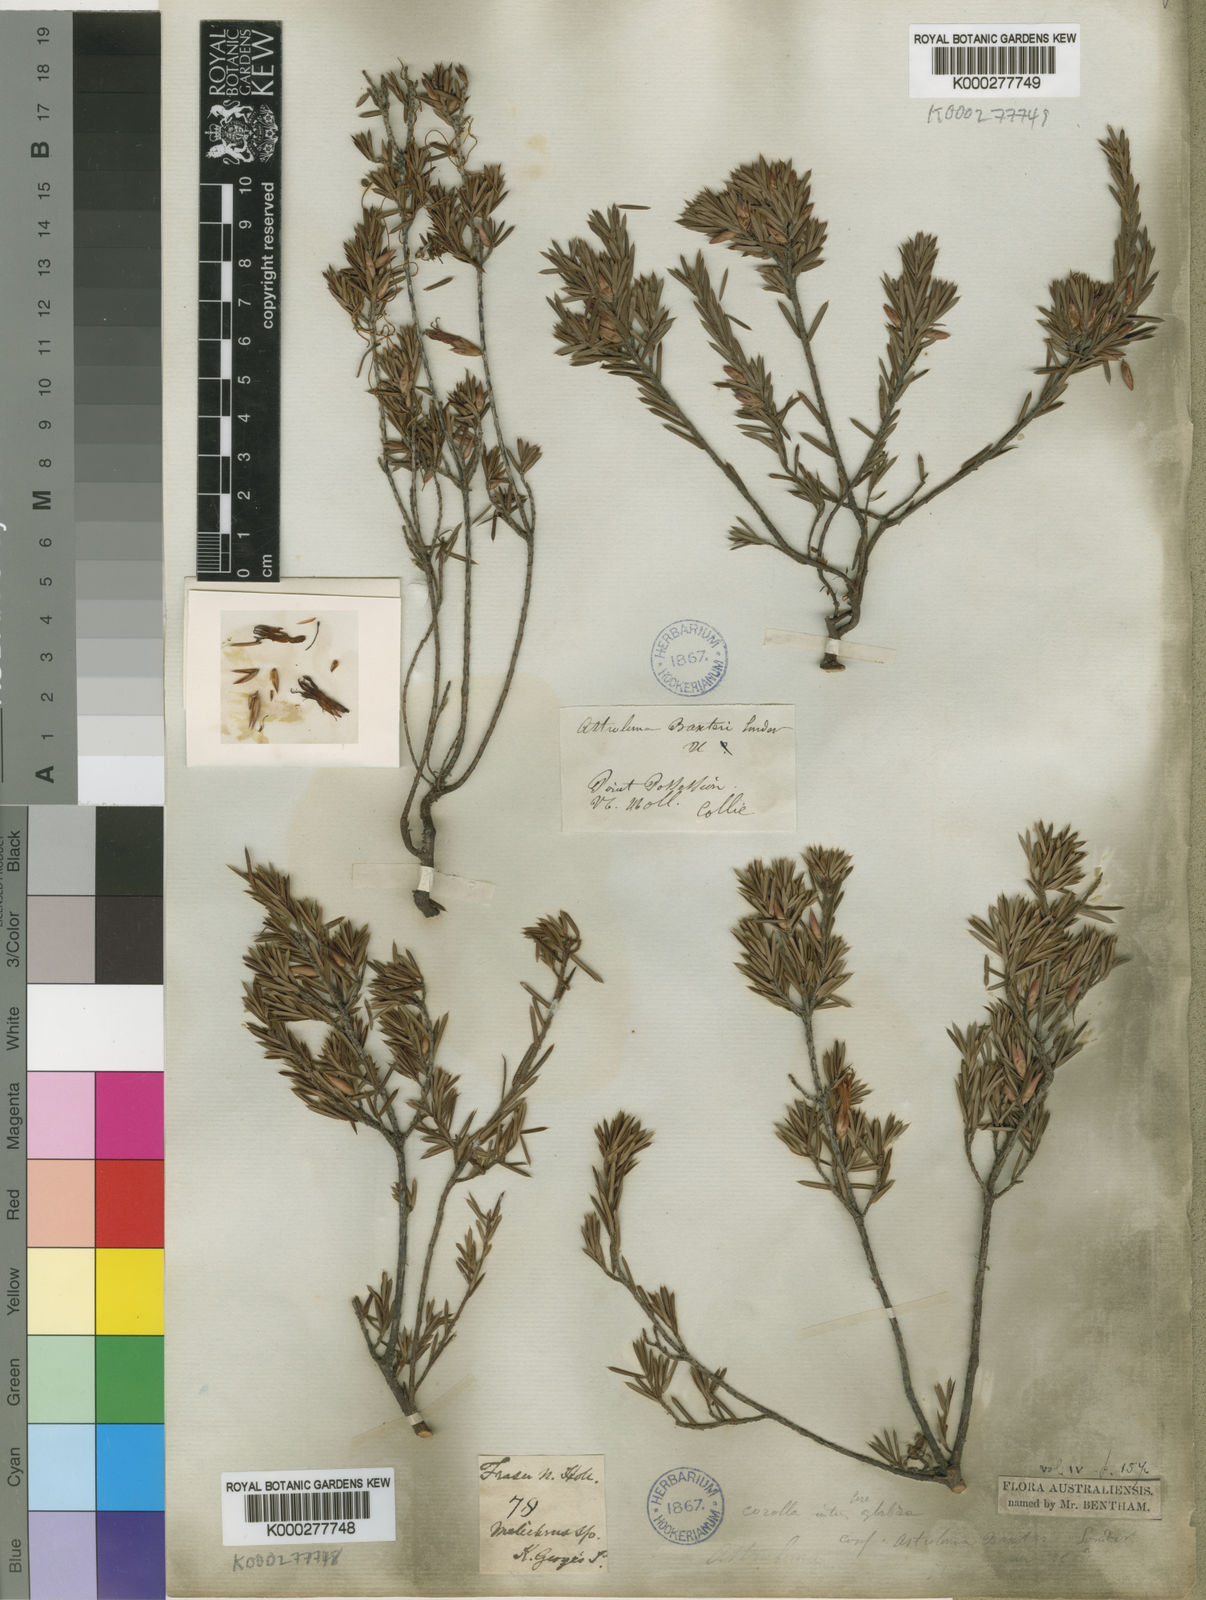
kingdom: Plantae
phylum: Tracheophyta
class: Magnoliopsida
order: Ericales
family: Ericaceae
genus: Brachyloma
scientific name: Brachyloma baxteri
